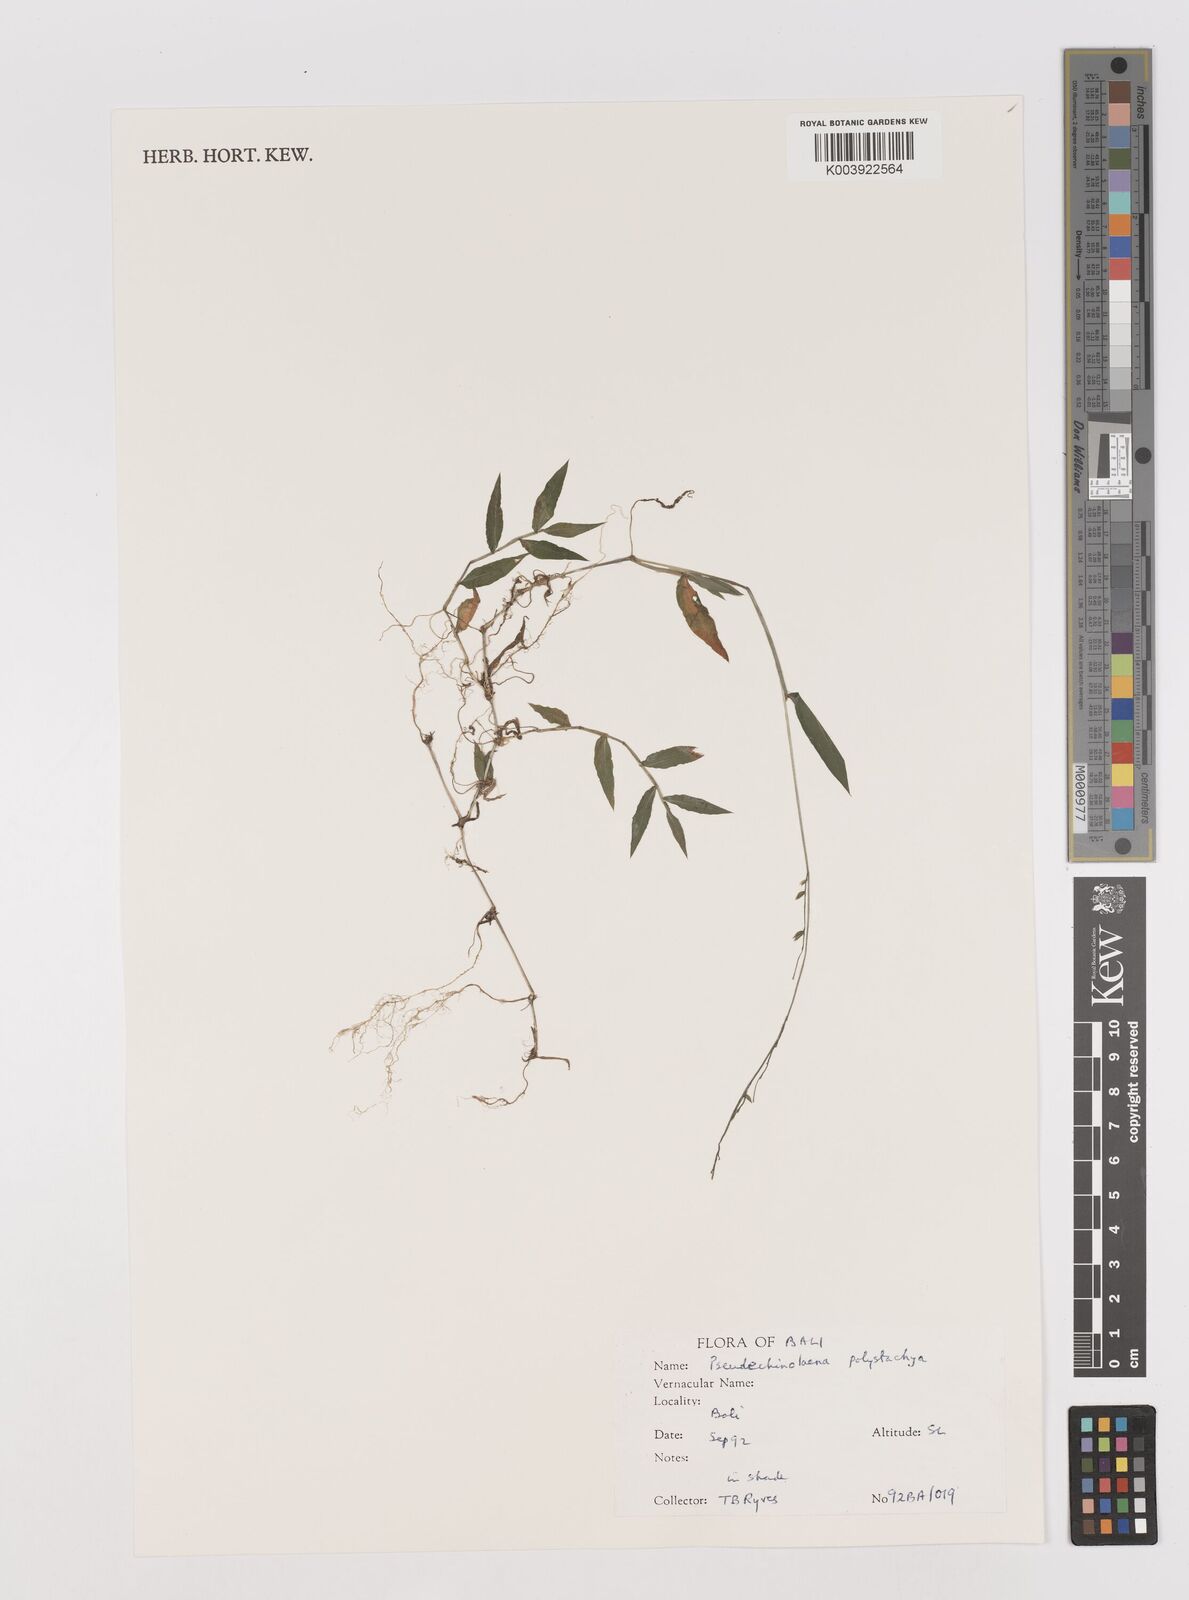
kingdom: Plantae
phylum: Tracheophyta
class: Liliopsida
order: Poales
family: Poaceae
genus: Pseudechinolaena
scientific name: Pseudechinolaena polystachya
